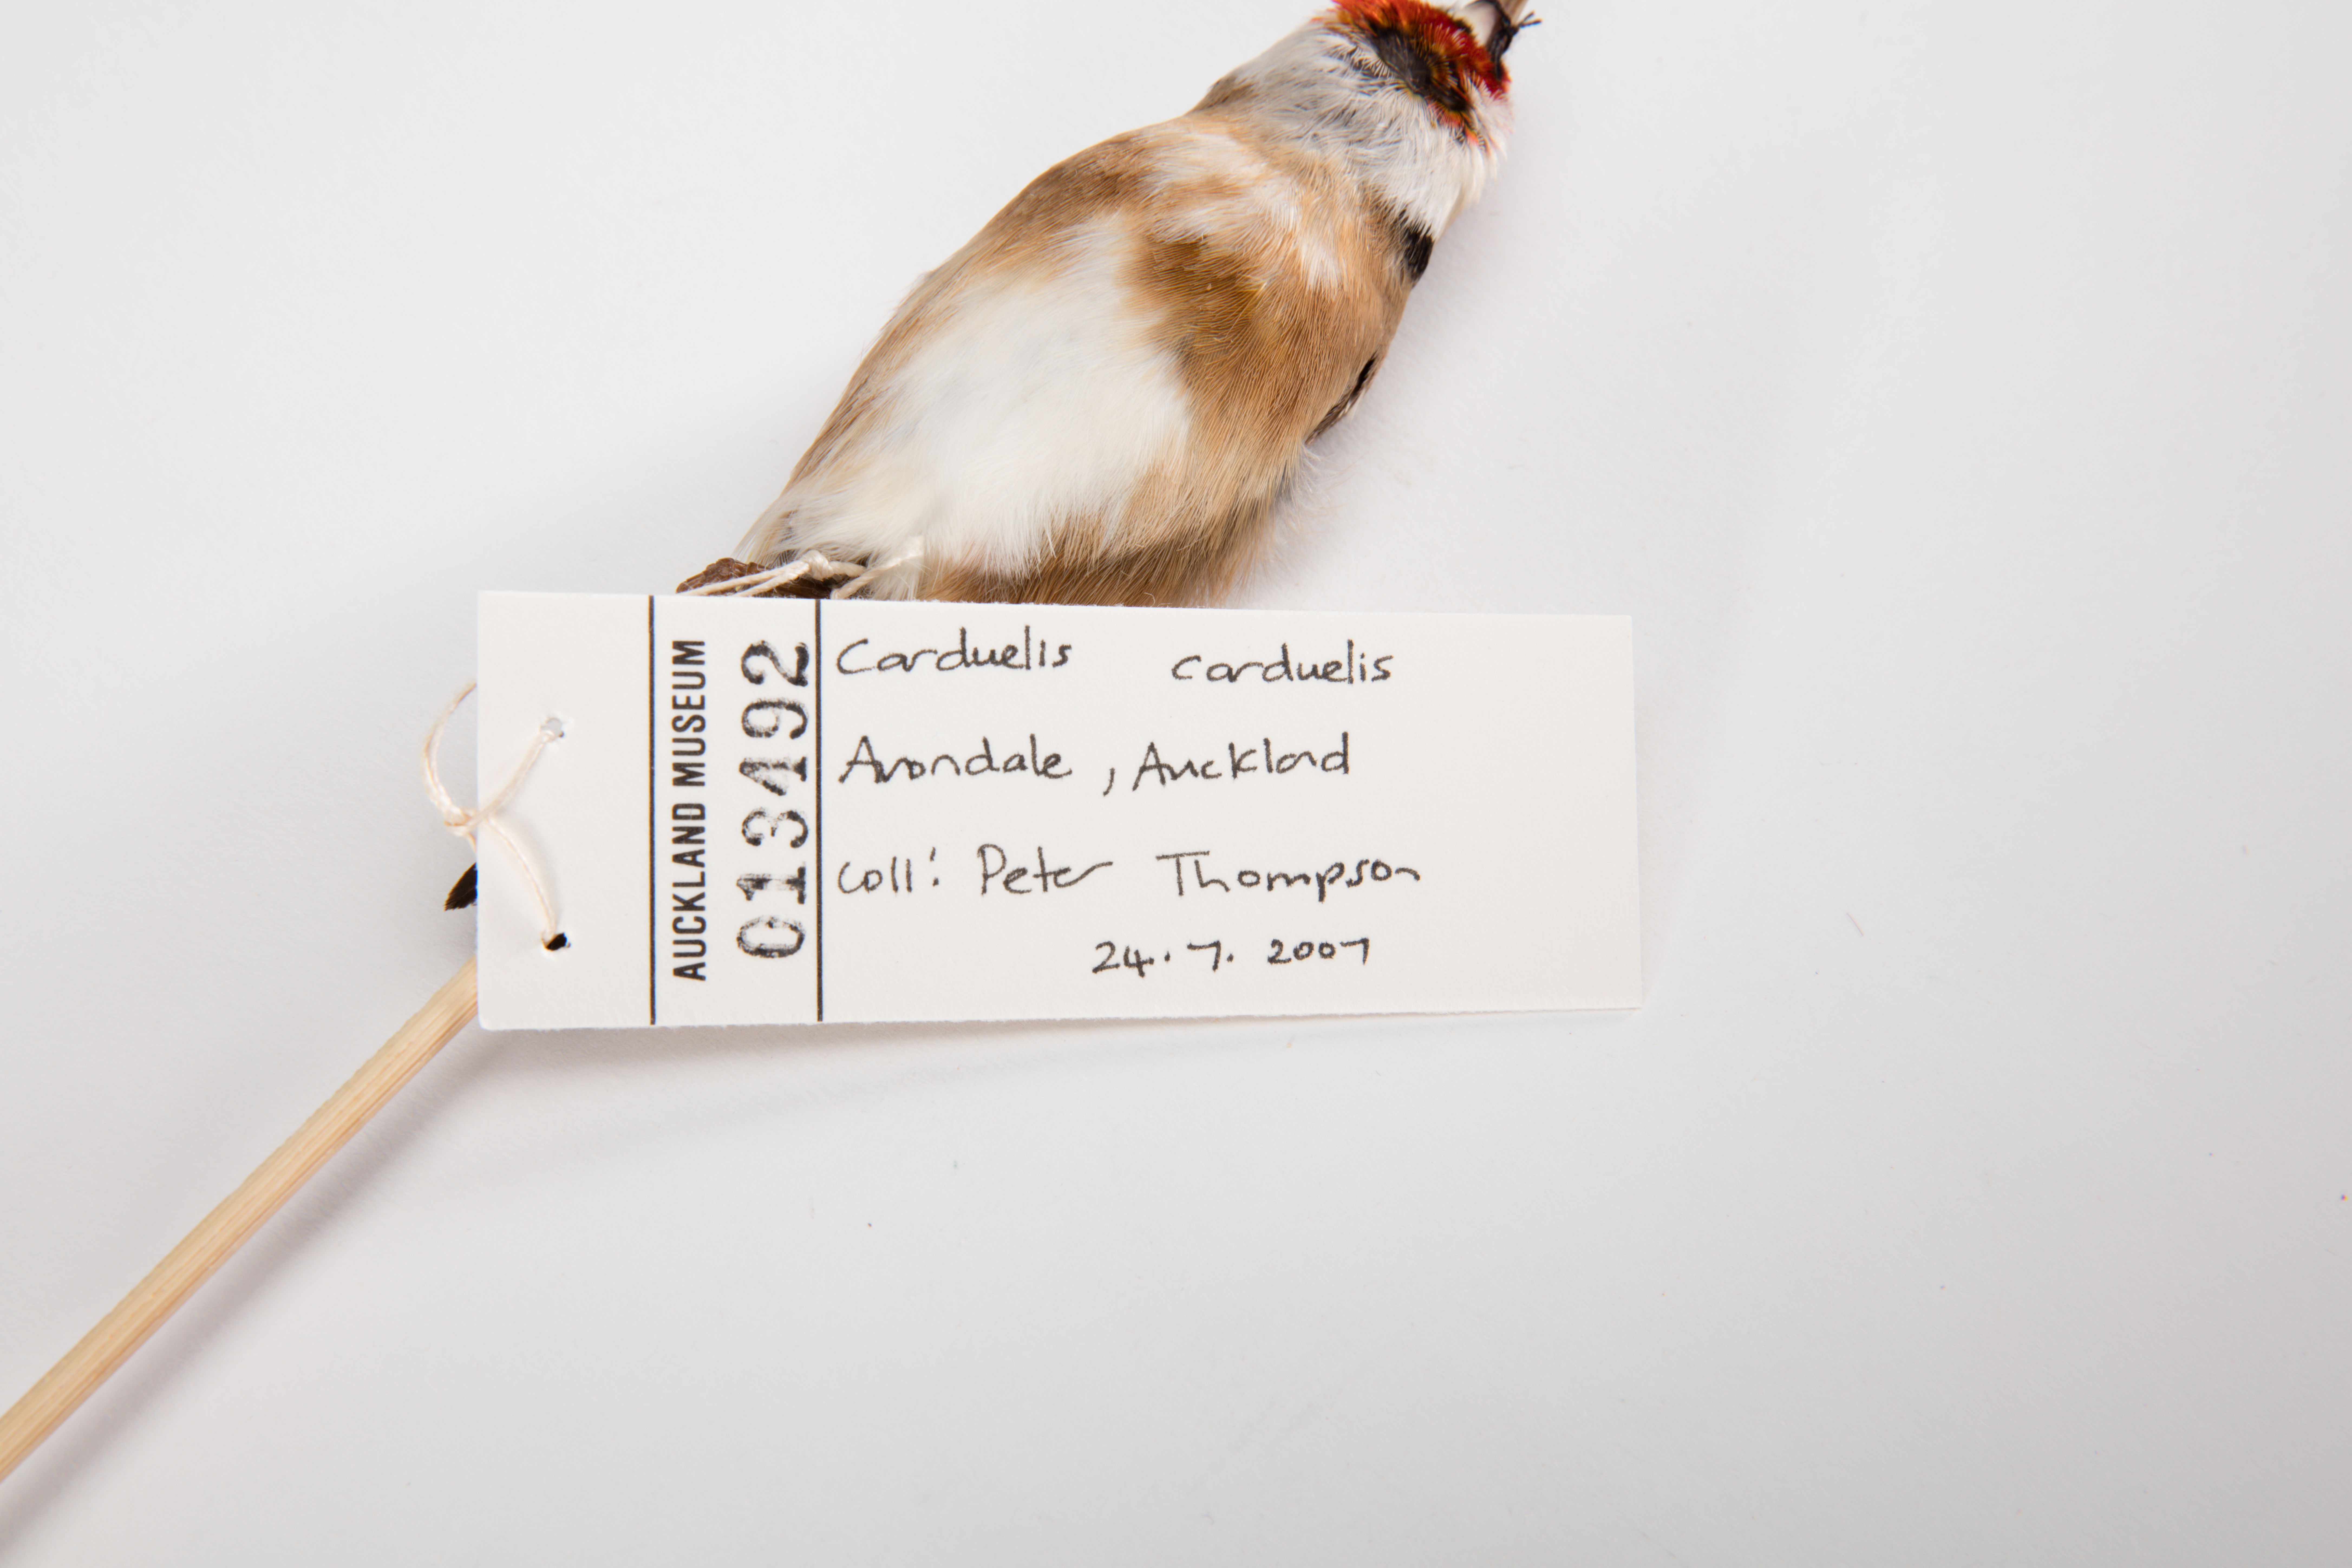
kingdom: Animalia
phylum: Chordata
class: Aves
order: Passeriformes
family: Fringillidae
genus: Carduelis
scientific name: Carduelis carduelis
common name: European goldfinch
